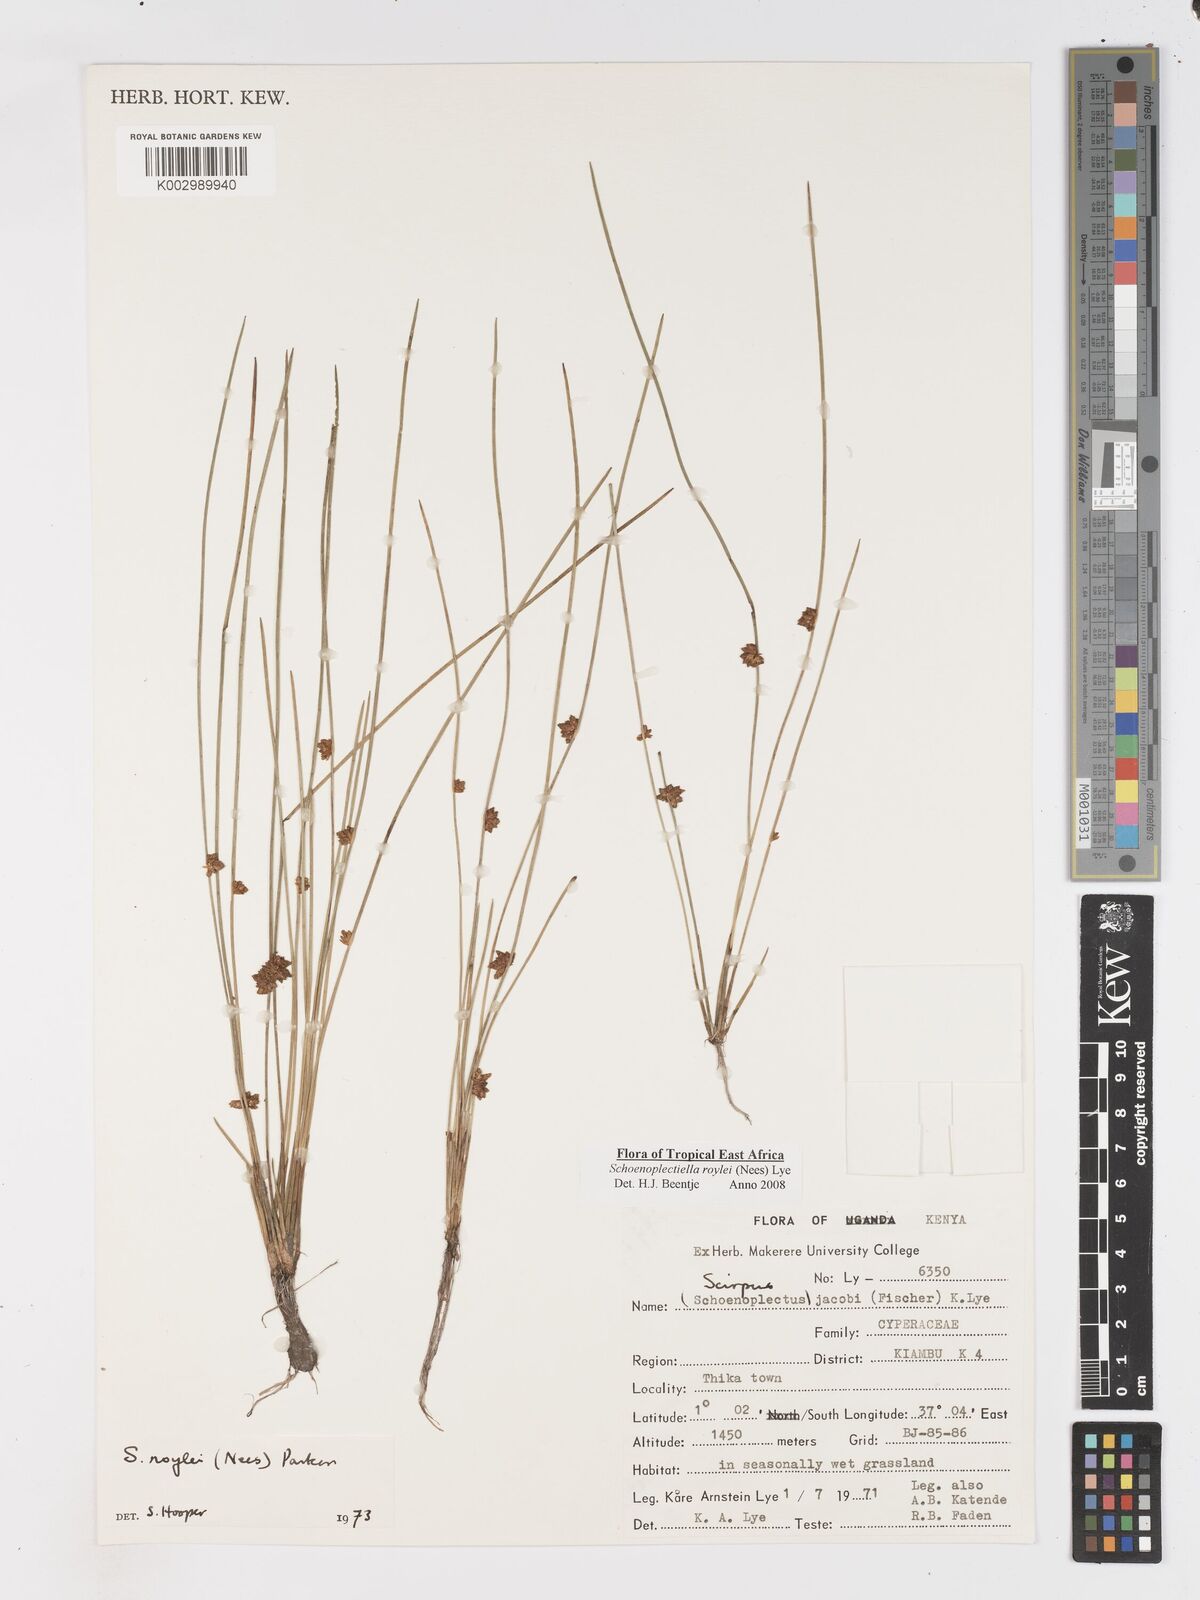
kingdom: Plantae
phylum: Tracheophyta
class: Liliopsida
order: Poales
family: Cyperaceae
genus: Schoenoplectiella
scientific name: Schoenoplectiella roylei
